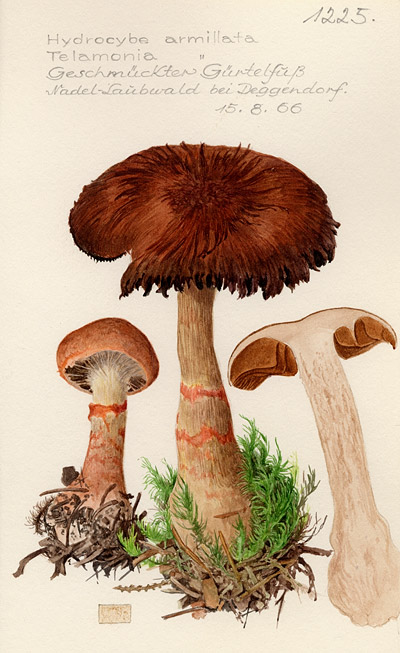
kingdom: Fungi
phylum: Basidiomycota
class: Agaricomycetes
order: Agaricales
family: Cortinariaceae
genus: Cortinarius
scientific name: Cortinarius armillatus
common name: Red banded webcap
